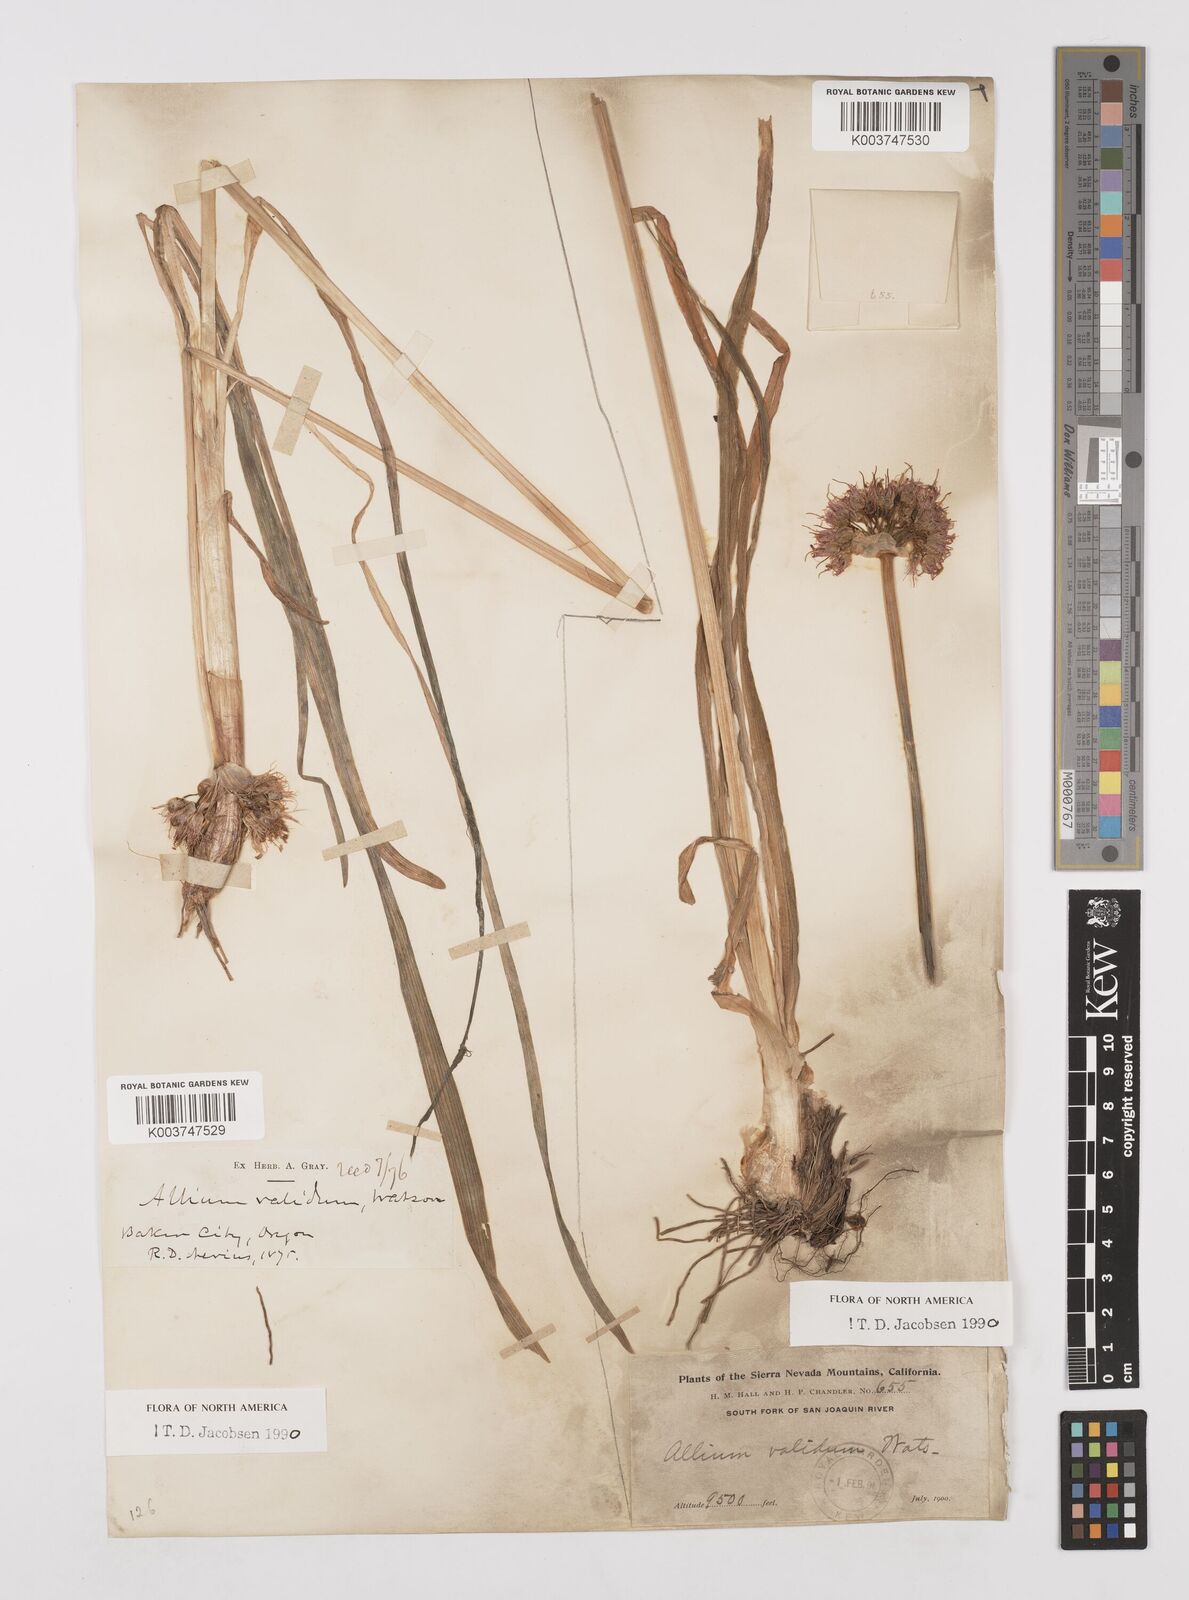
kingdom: Plantae
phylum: Tracheophyta
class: Liliopsida
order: Asparagales
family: Amaryllidaceae
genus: Allium
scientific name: Allium validum
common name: Pacific mountain onion
